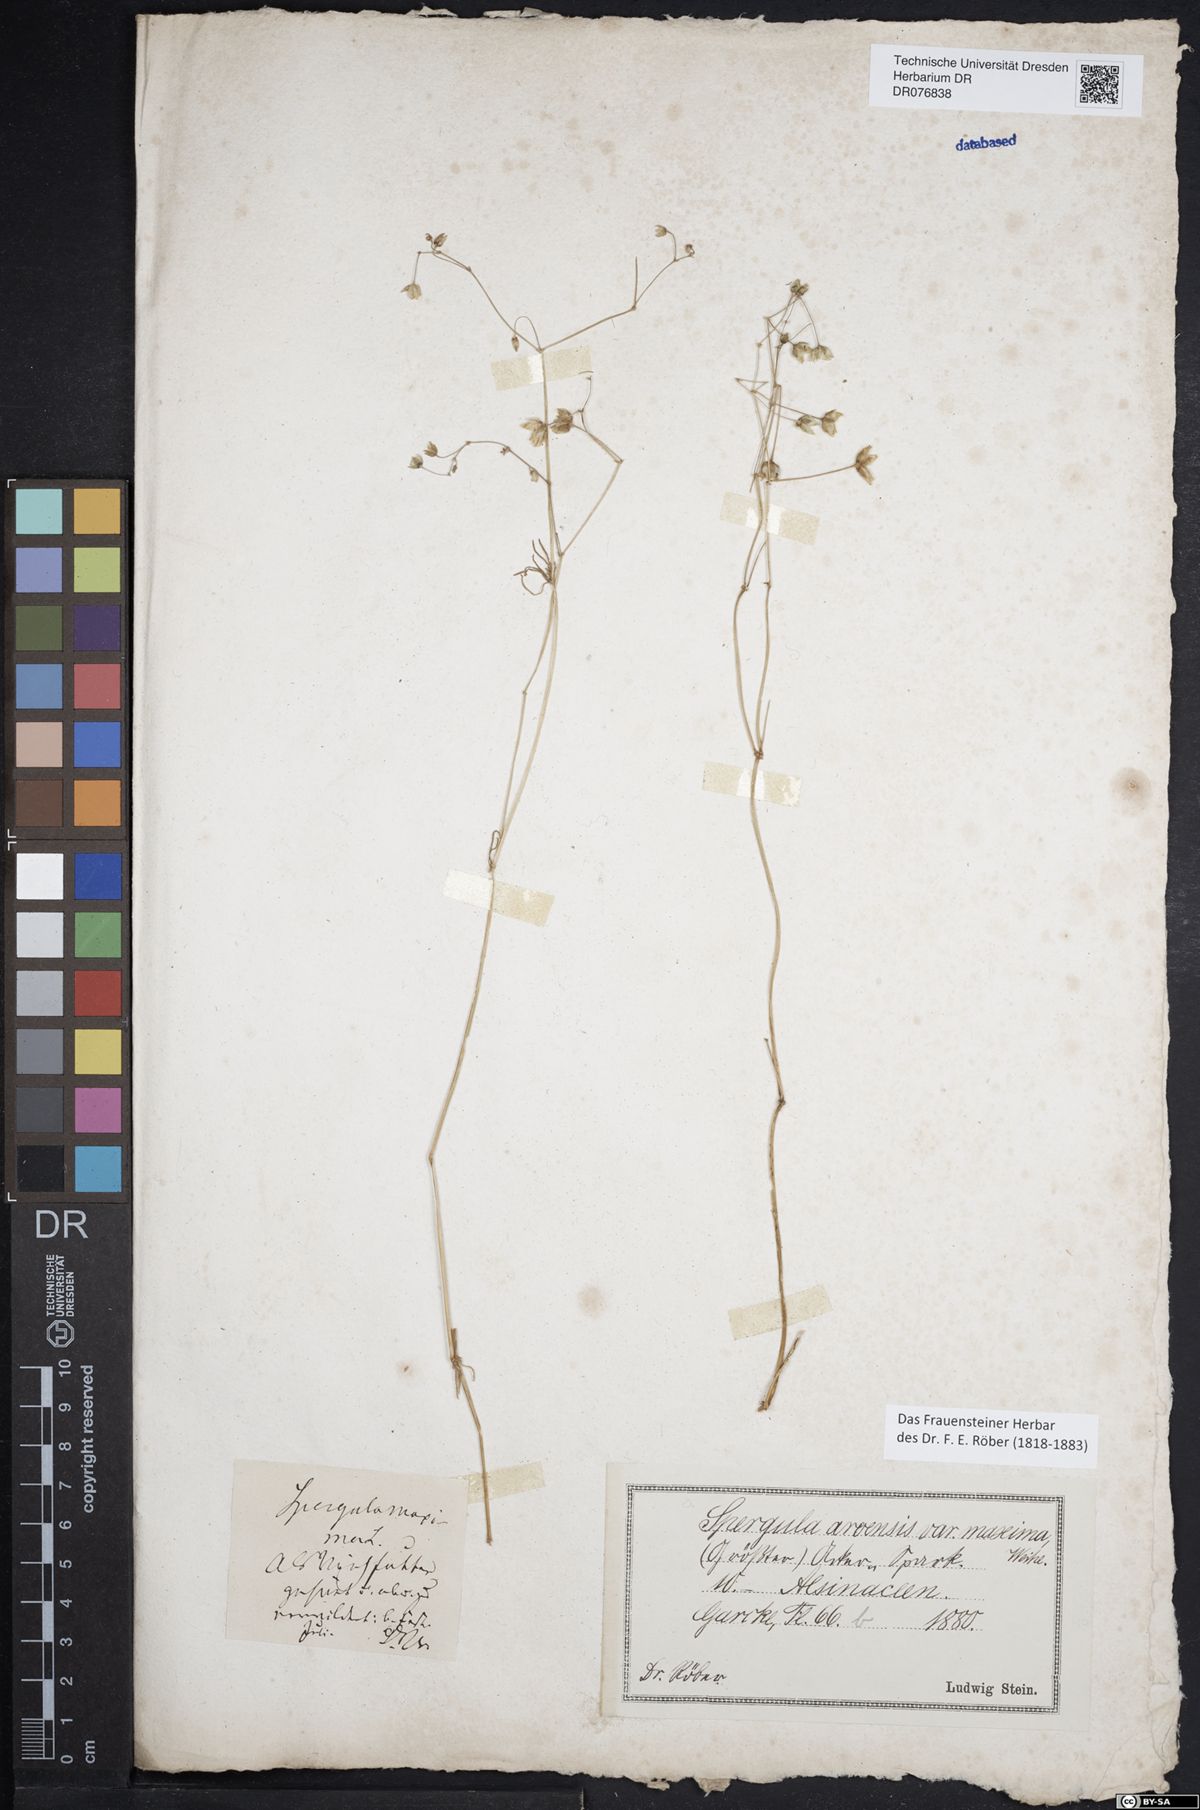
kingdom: Plantae
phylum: Tracheophyta
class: Magnoliopsida
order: Caryophyllales
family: Caryophyllaceae
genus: Spergula
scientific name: Spergula arvensis
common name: Corn spurrey
